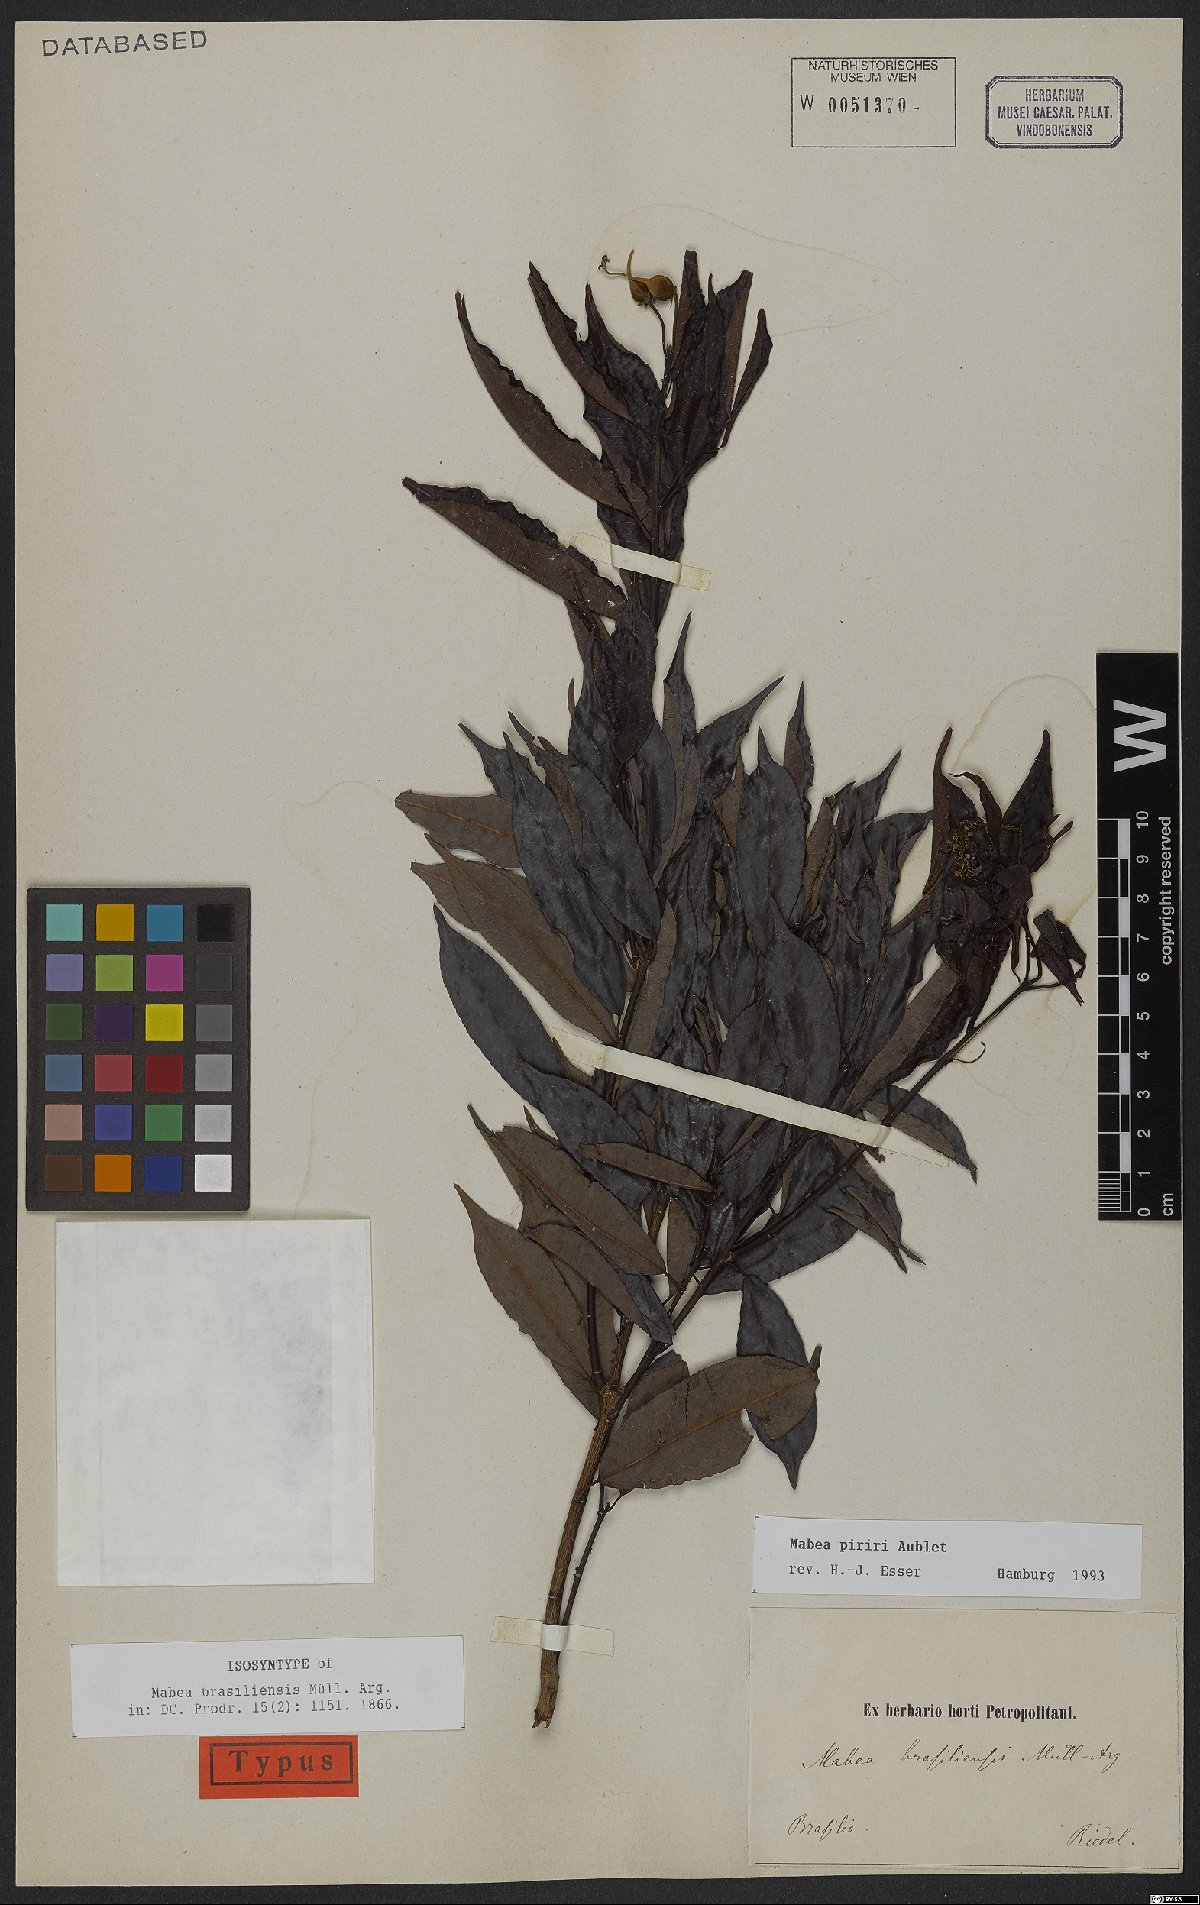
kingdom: Plantae
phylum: Tracheophyta
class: Magnoliopsida
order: Malpighiales
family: Euphorbiaceae
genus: Mabea
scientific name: Mabea piriri
